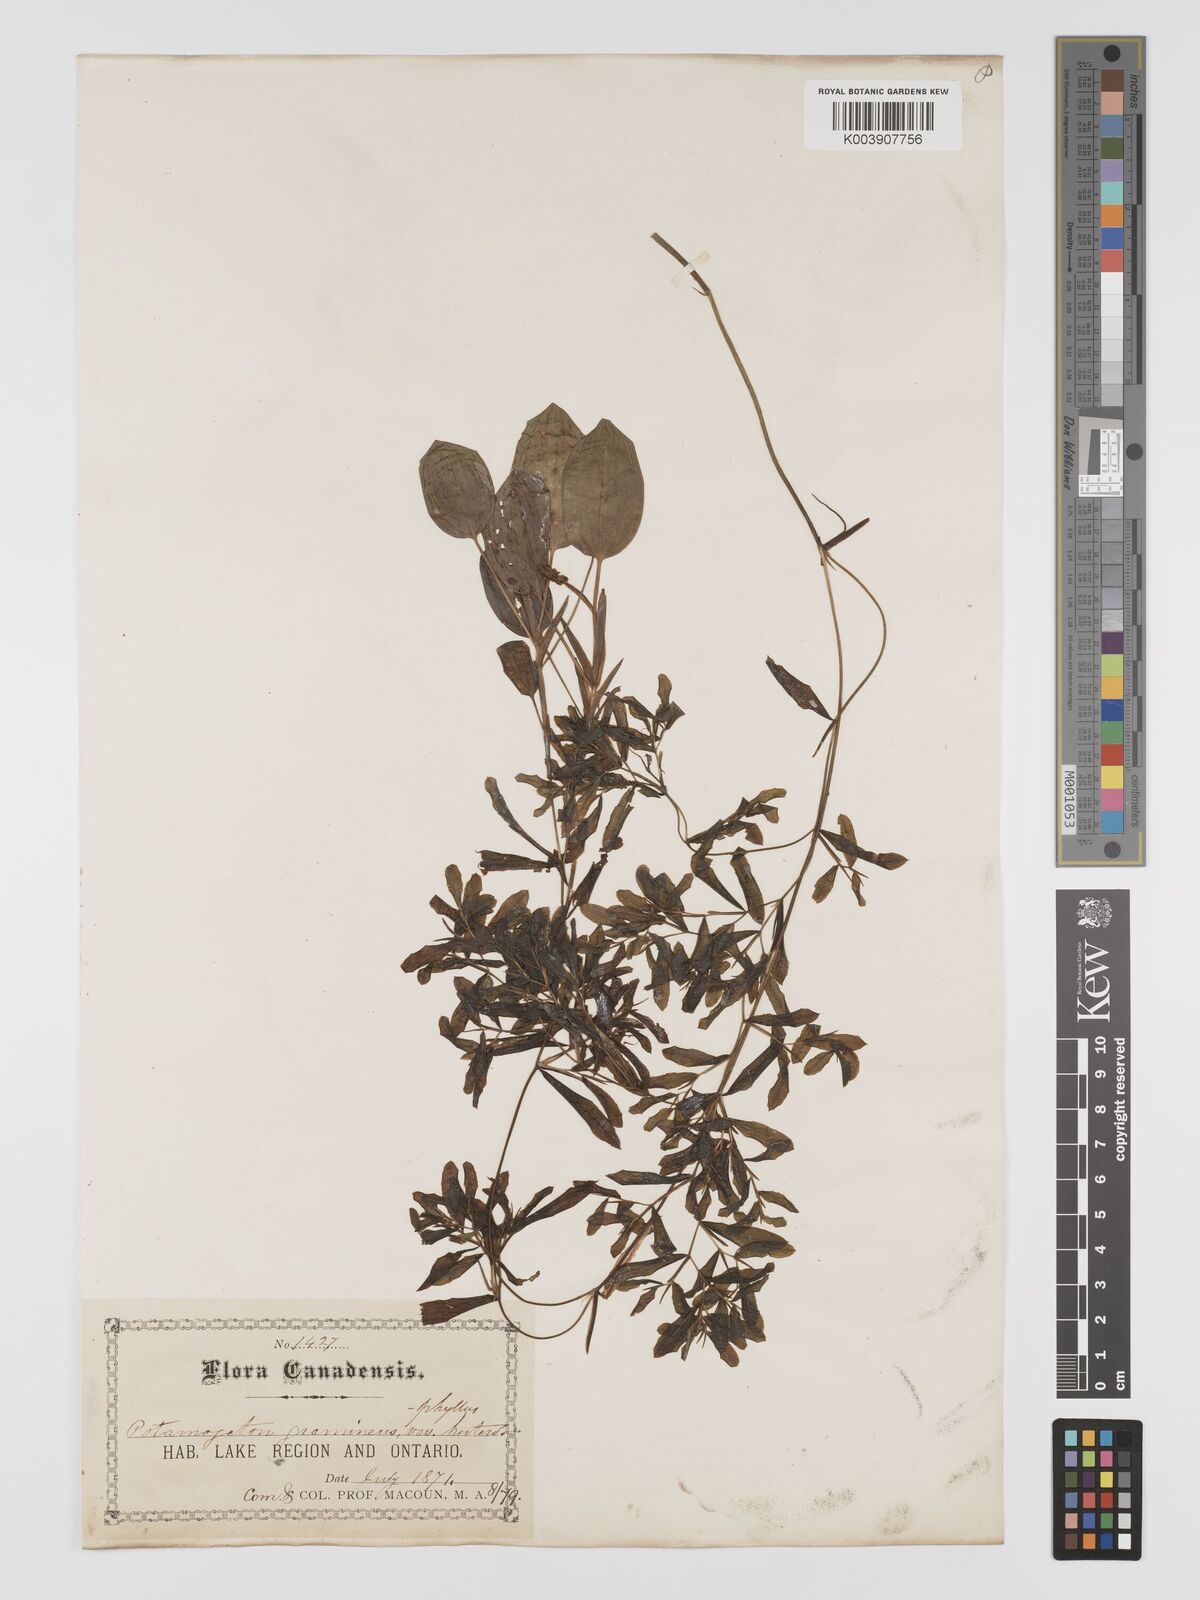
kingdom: Plantae
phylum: Tracheophyta
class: Liliopsida
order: Alismatales
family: Potamogetonaceae
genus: Potamogeton
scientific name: Potamogeton gramineus
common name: Various-leaved pondweed
